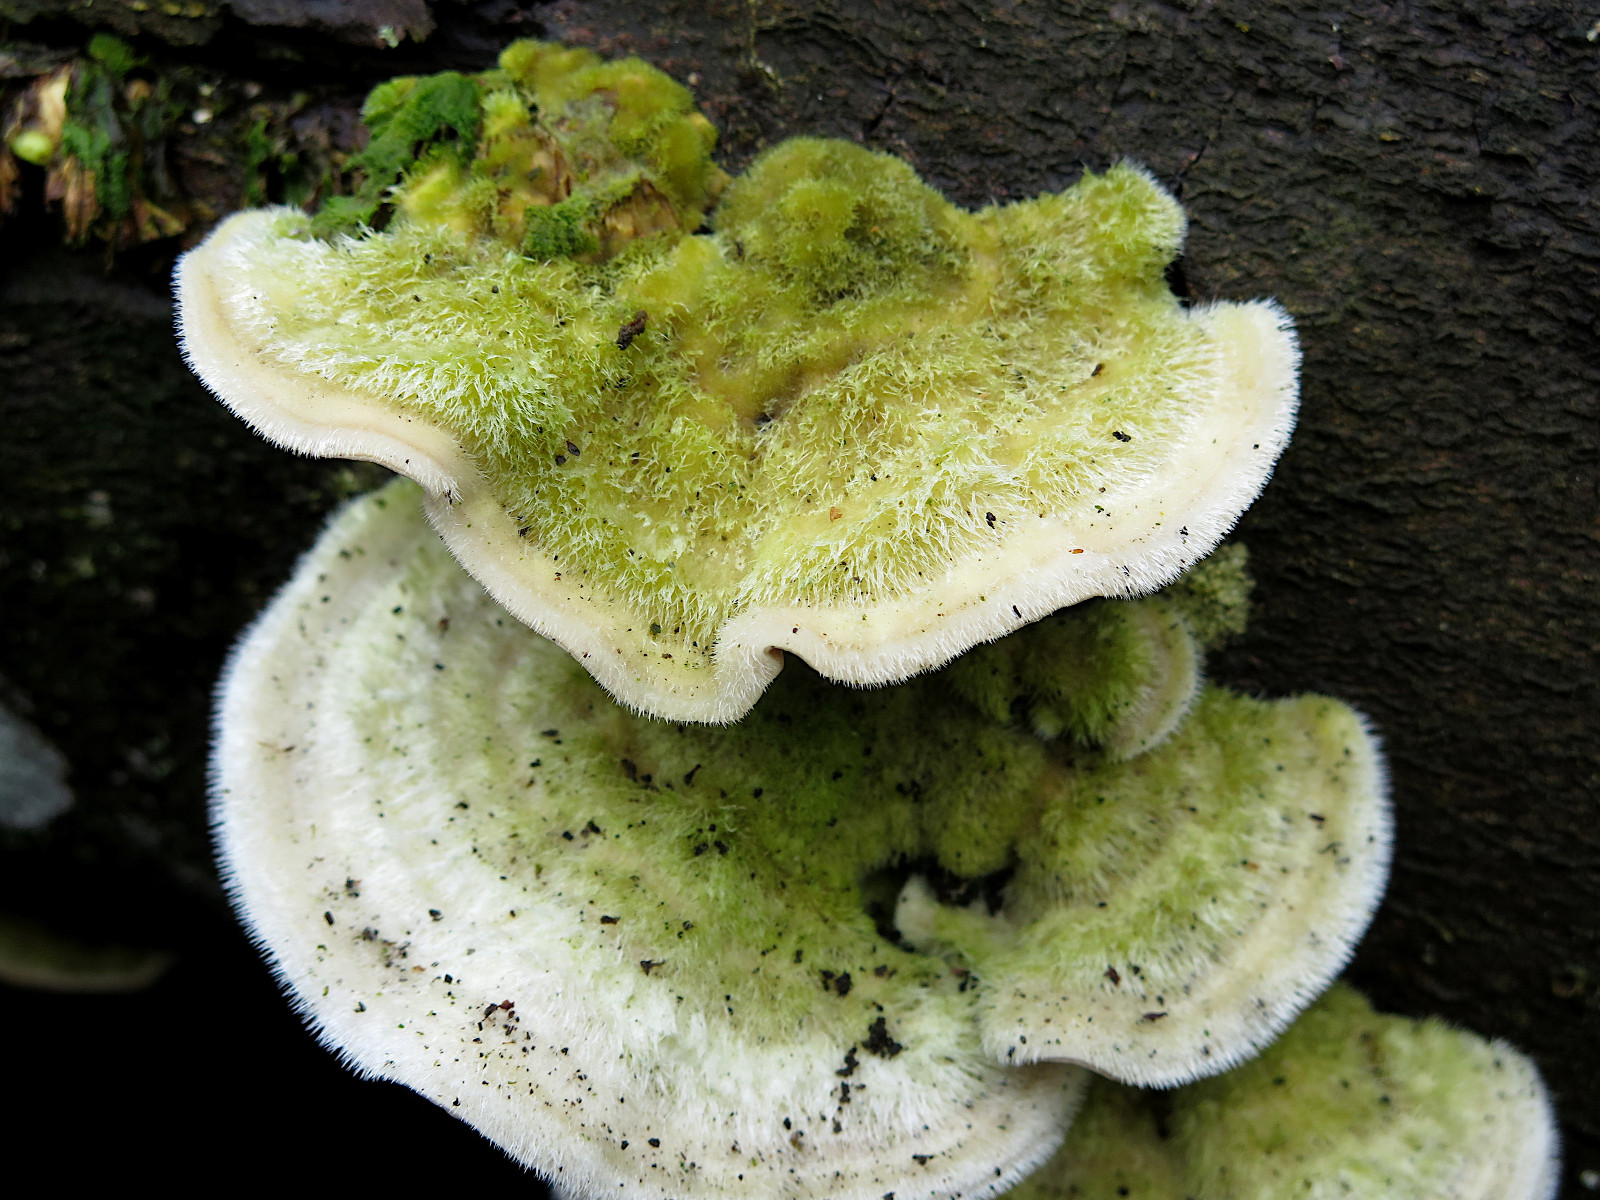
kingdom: Fungi
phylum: Basidiomycota
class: Agaricomycetes
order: Polyporales
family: Polyporaceae
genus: Trametes
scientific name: Trametes hirsuta
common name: håret læderporesvamp
